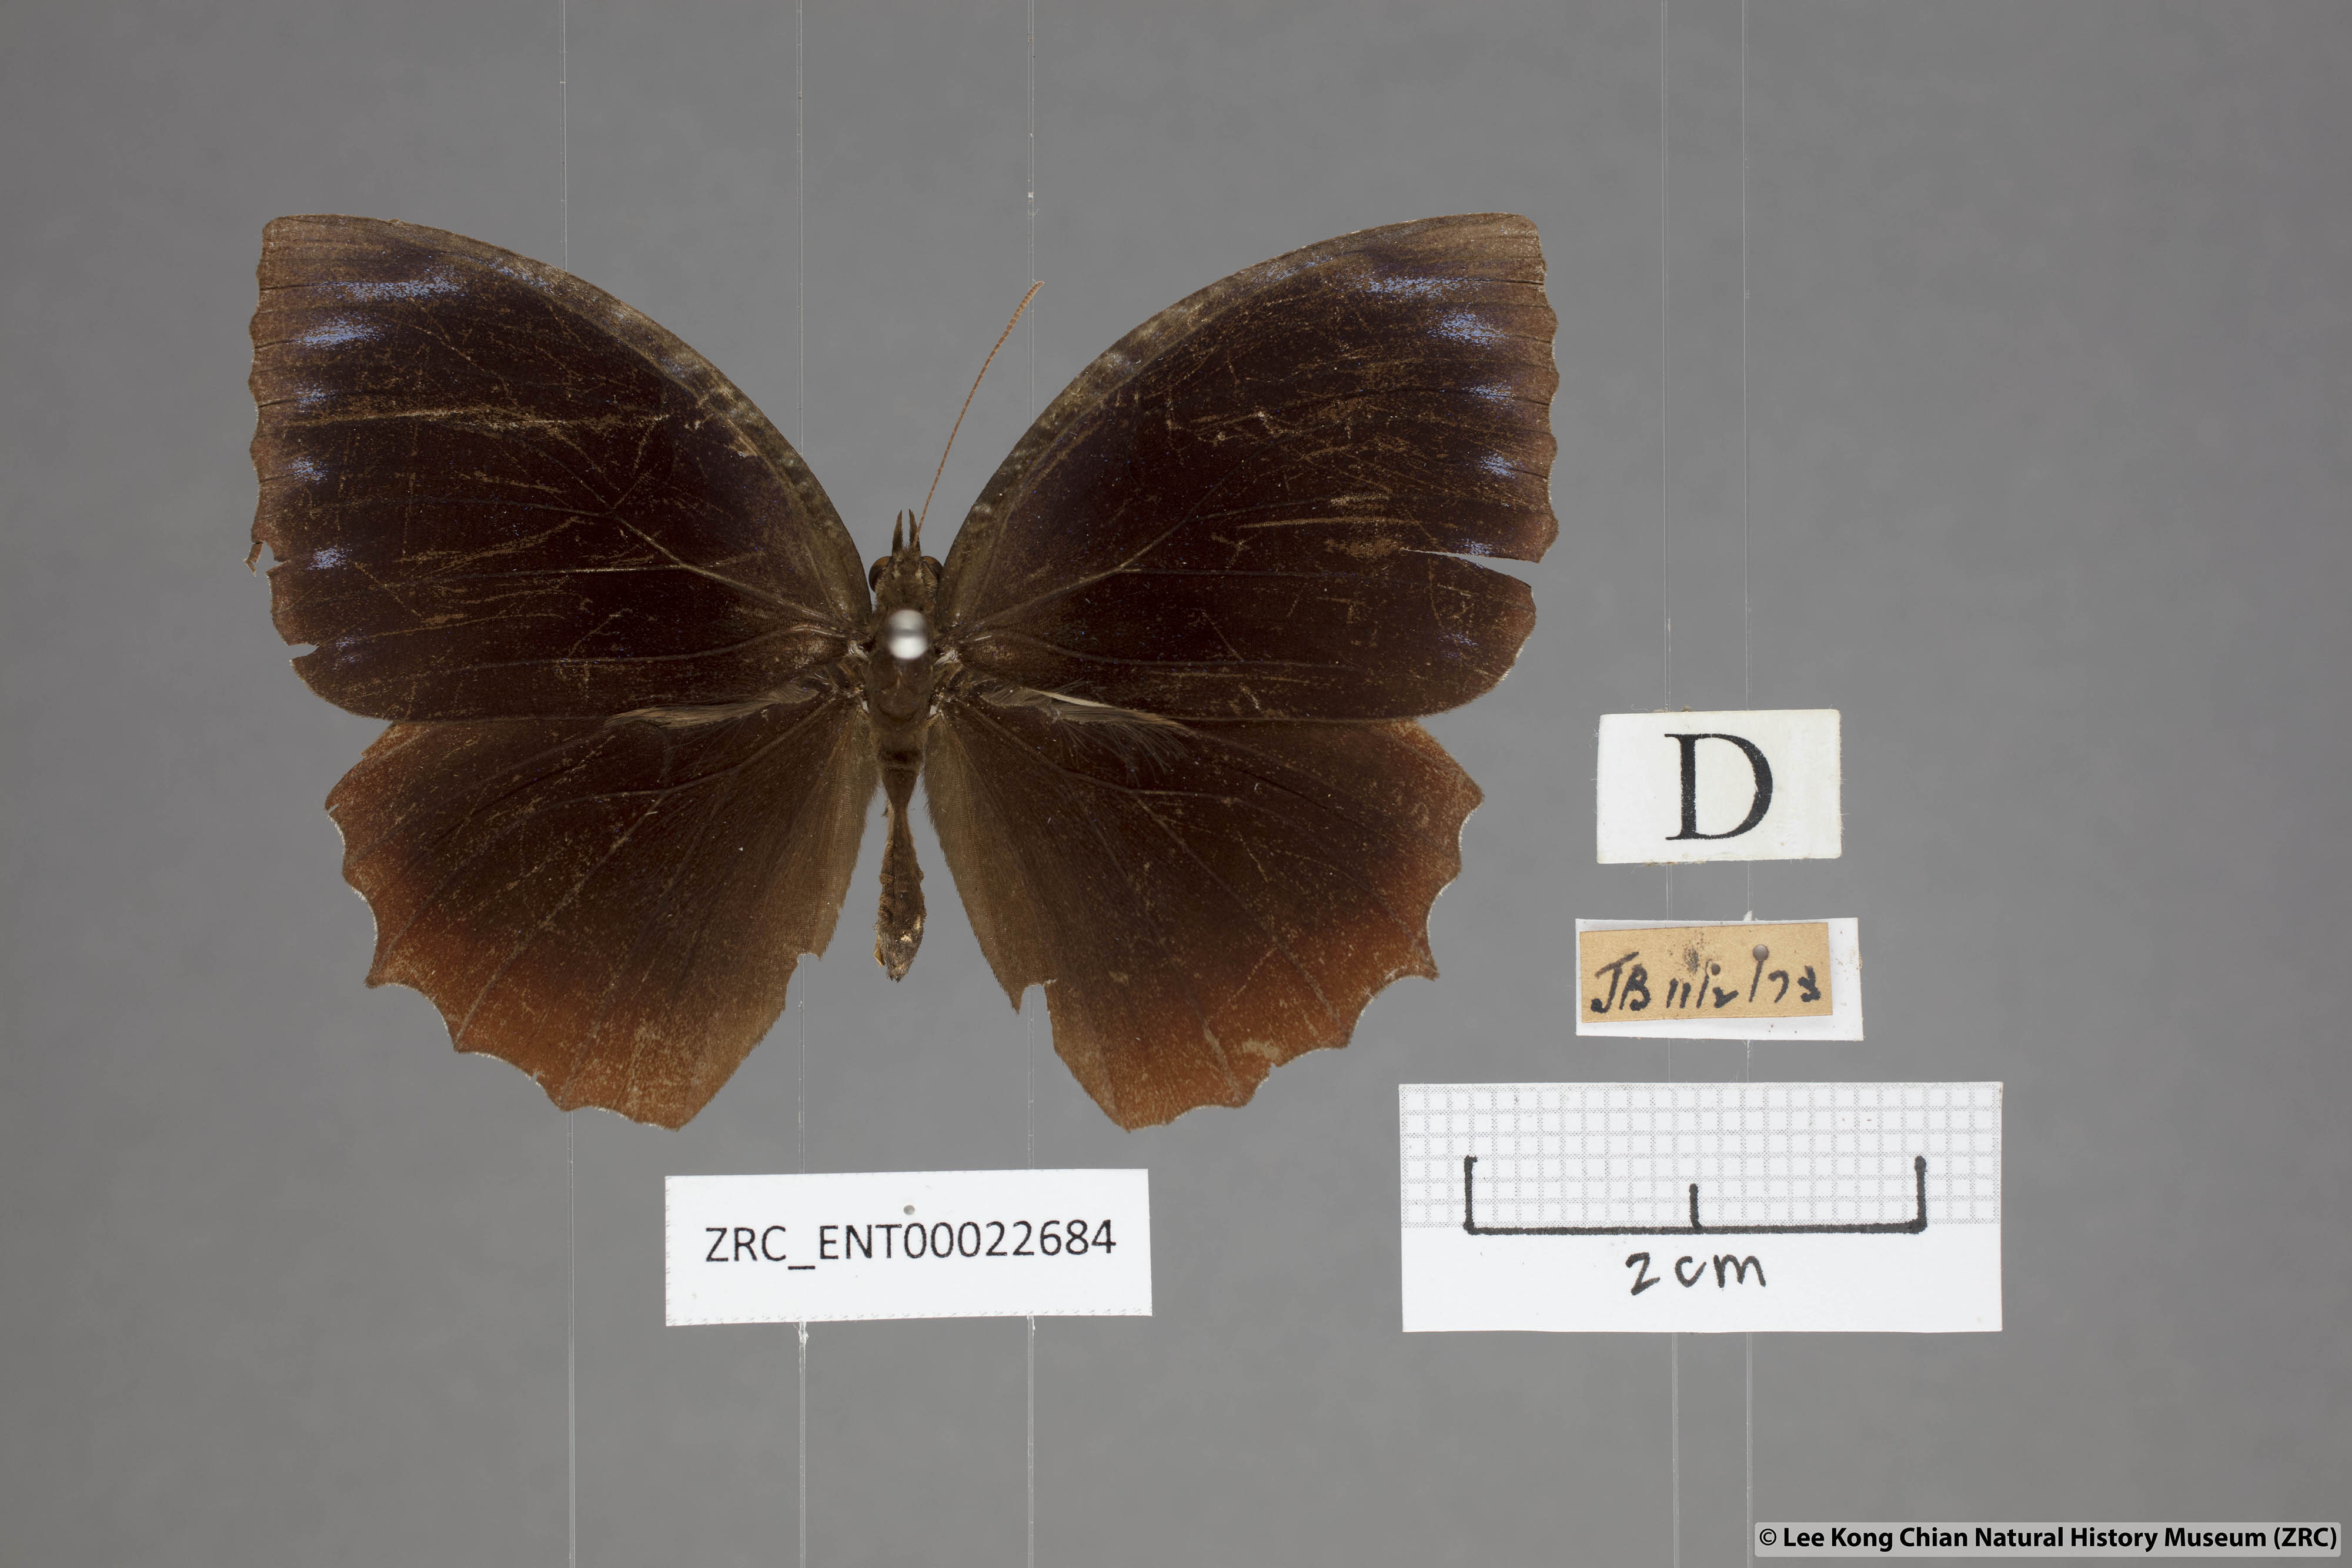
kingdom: Animalia
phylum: Arthropoda
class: Insecta
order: Lepidoptera
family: Nymphalidae
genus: Elymnias
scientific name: Elymnias hypermnestra
